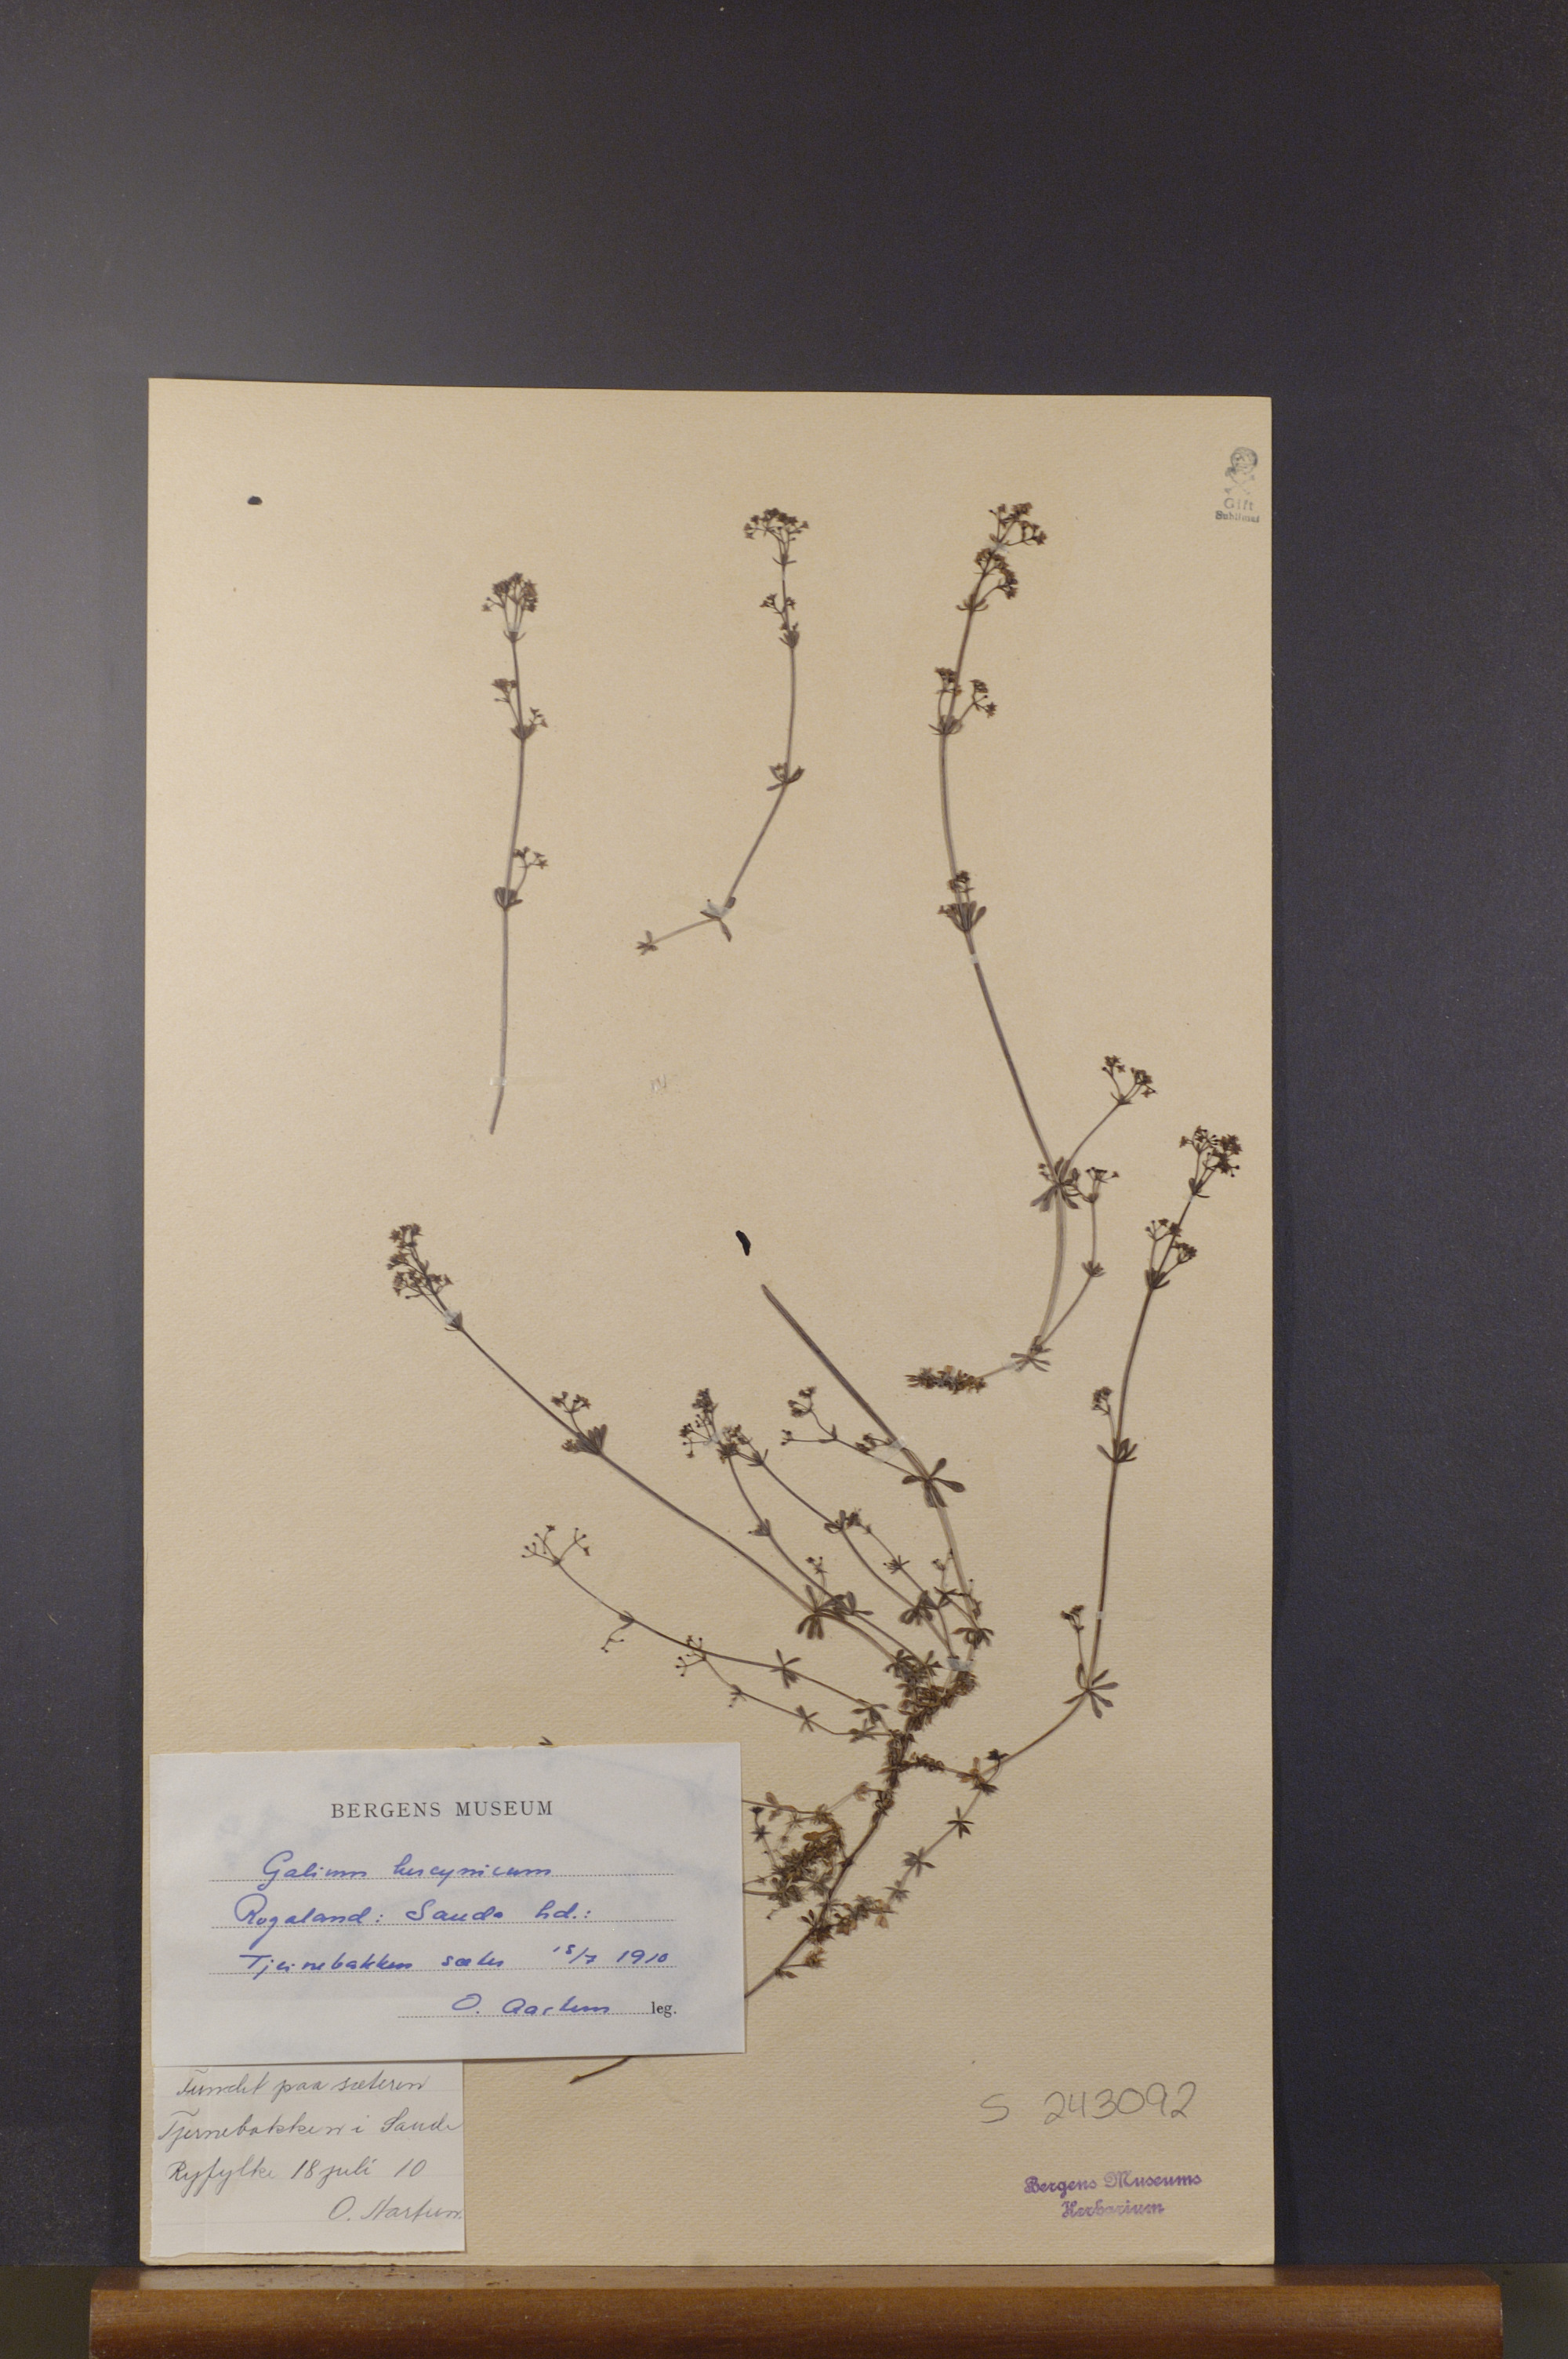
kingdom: Plantae
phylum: Tracheophyta
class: Magnoliopsida
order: Gentianales
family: Rubiaceae
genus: Galium
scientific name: Galium saxatile
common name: Heath bedstraw
